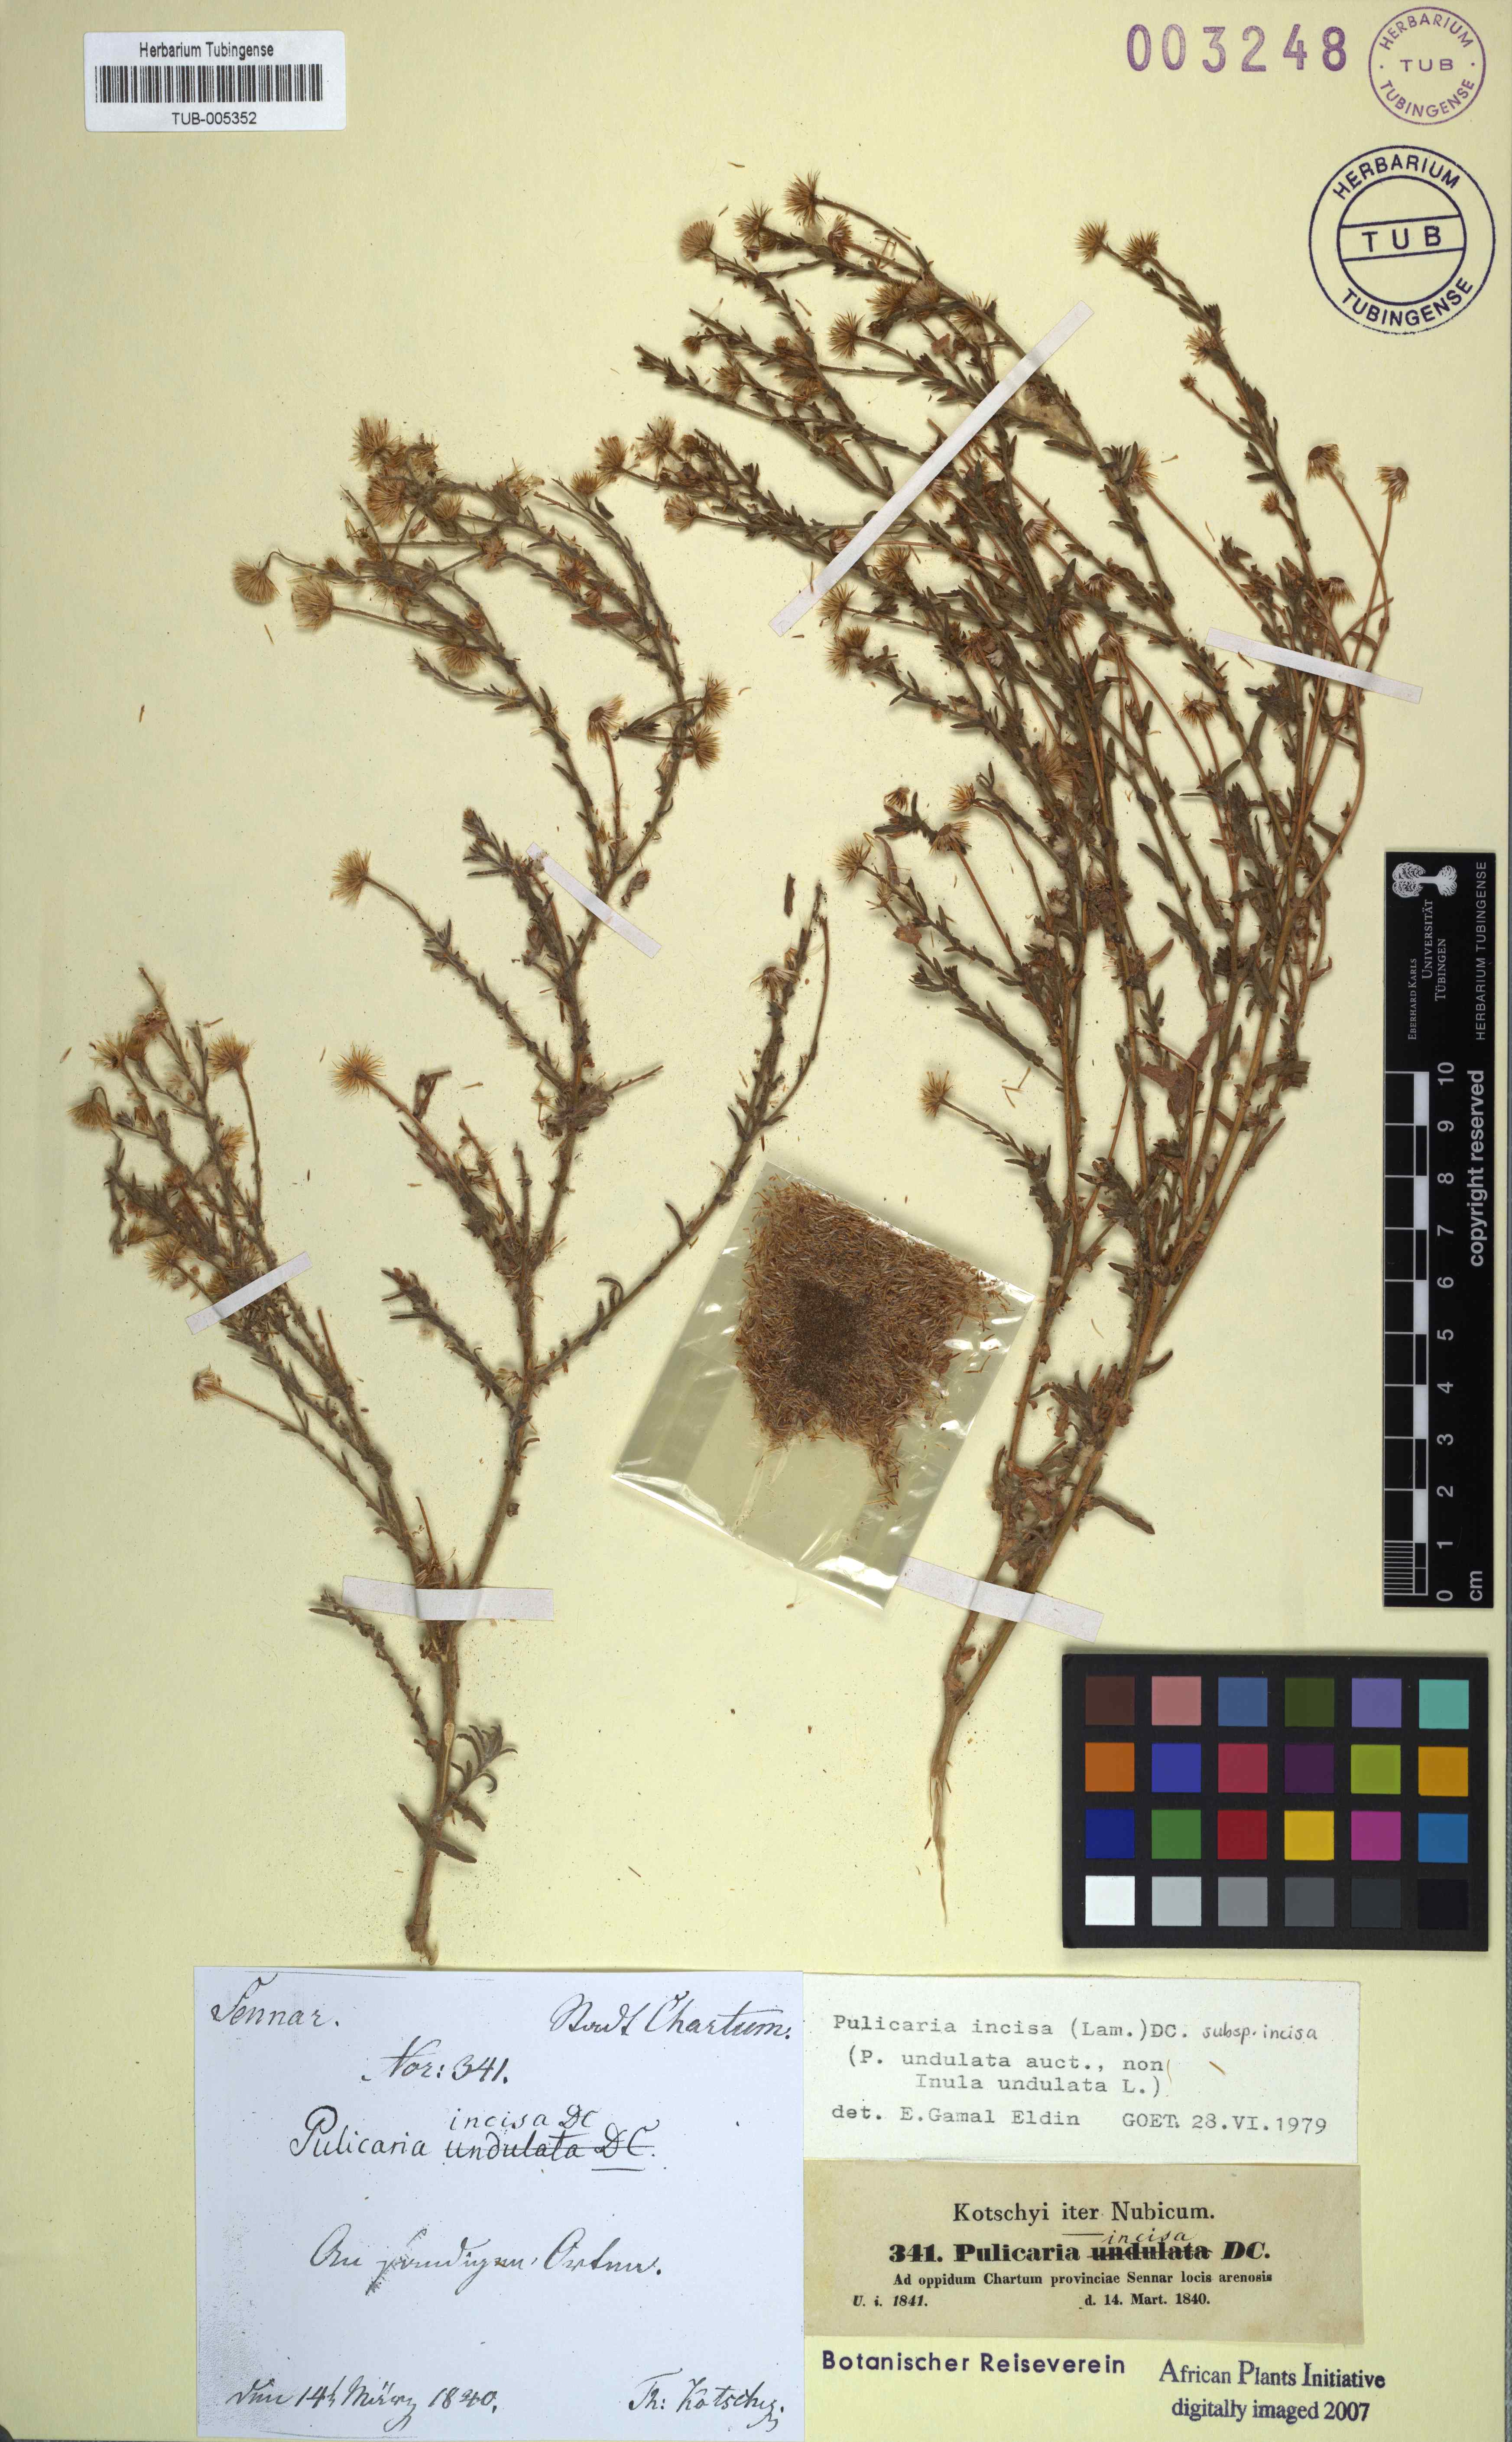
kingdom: Plantae
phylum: Tracheophyta
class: Magnoliopsida
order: Asterales
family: Asteraceae
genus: Pulicaria
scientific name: Pulicaria incisa
